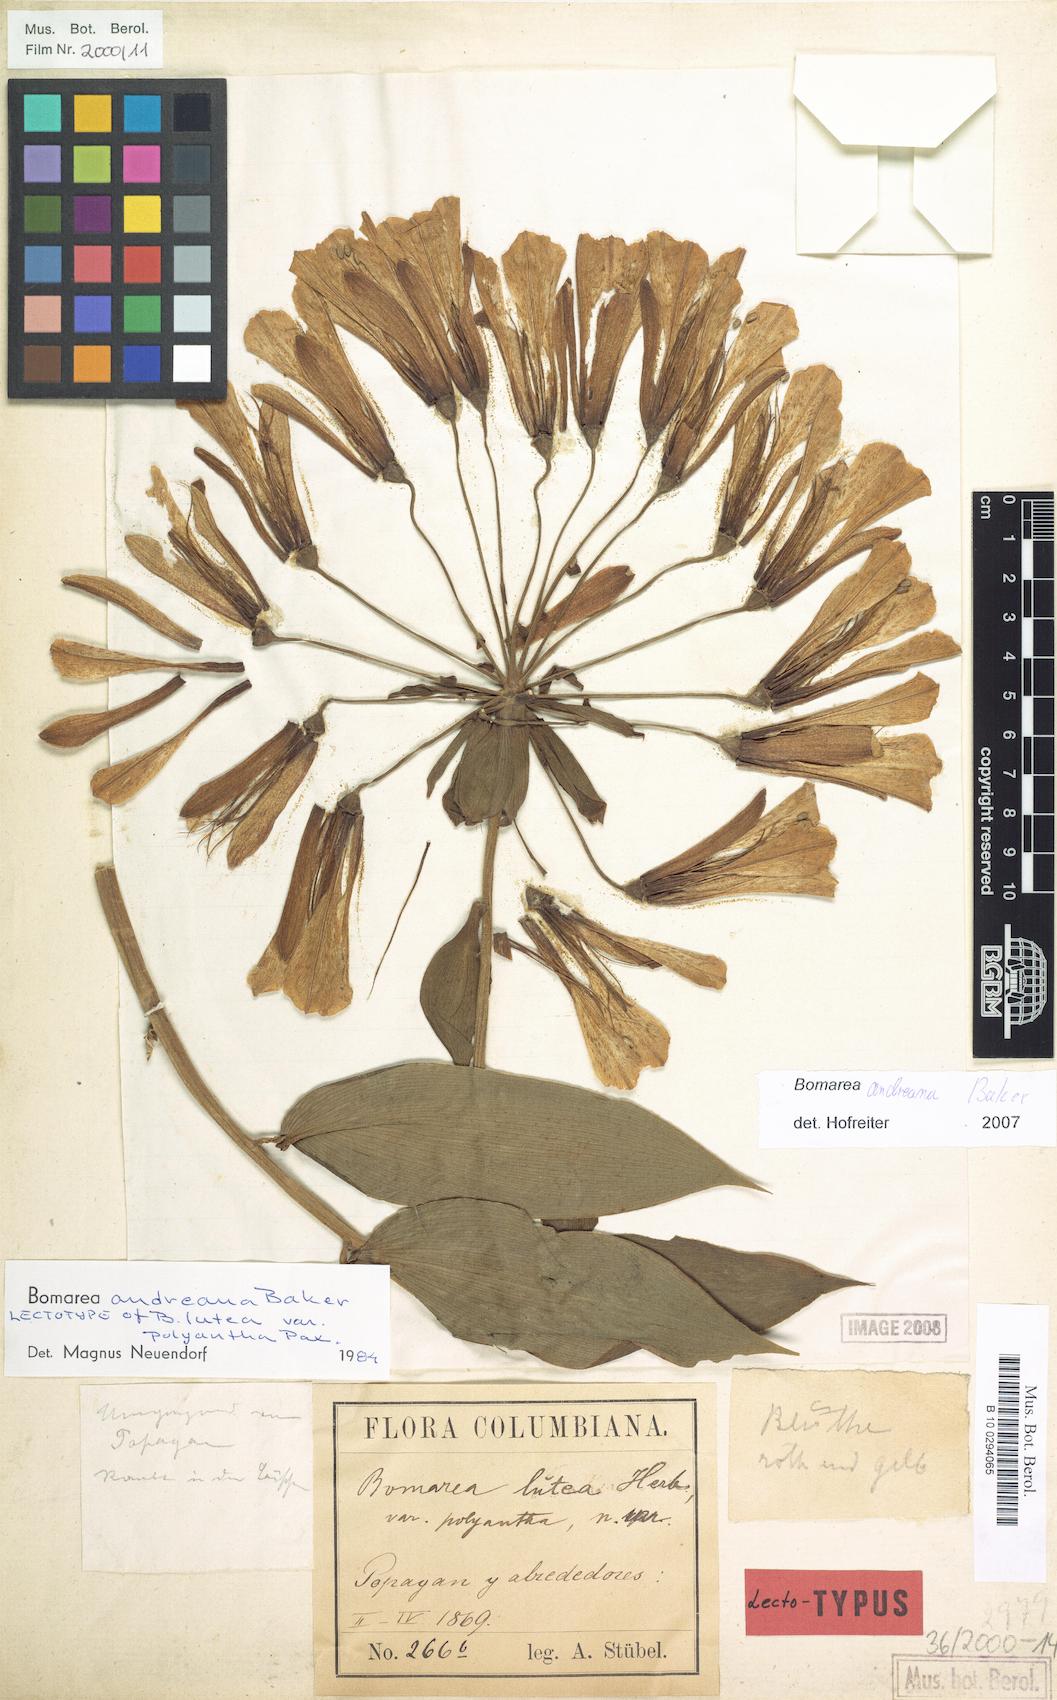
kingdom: Plantae
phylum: Tracheophyta
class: Liliopsida
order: Liliales
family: Alstroemeriaceae
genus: Bomarea
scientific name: Bomarea andreana
